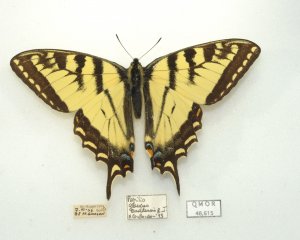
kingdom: Animalia
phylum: Arthropoda
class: Insecta
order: Lepidoptera
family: Papilionidae
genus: Pterourus
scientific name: Pterourus canadensis
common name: Canadian Tiger Swallowtail
